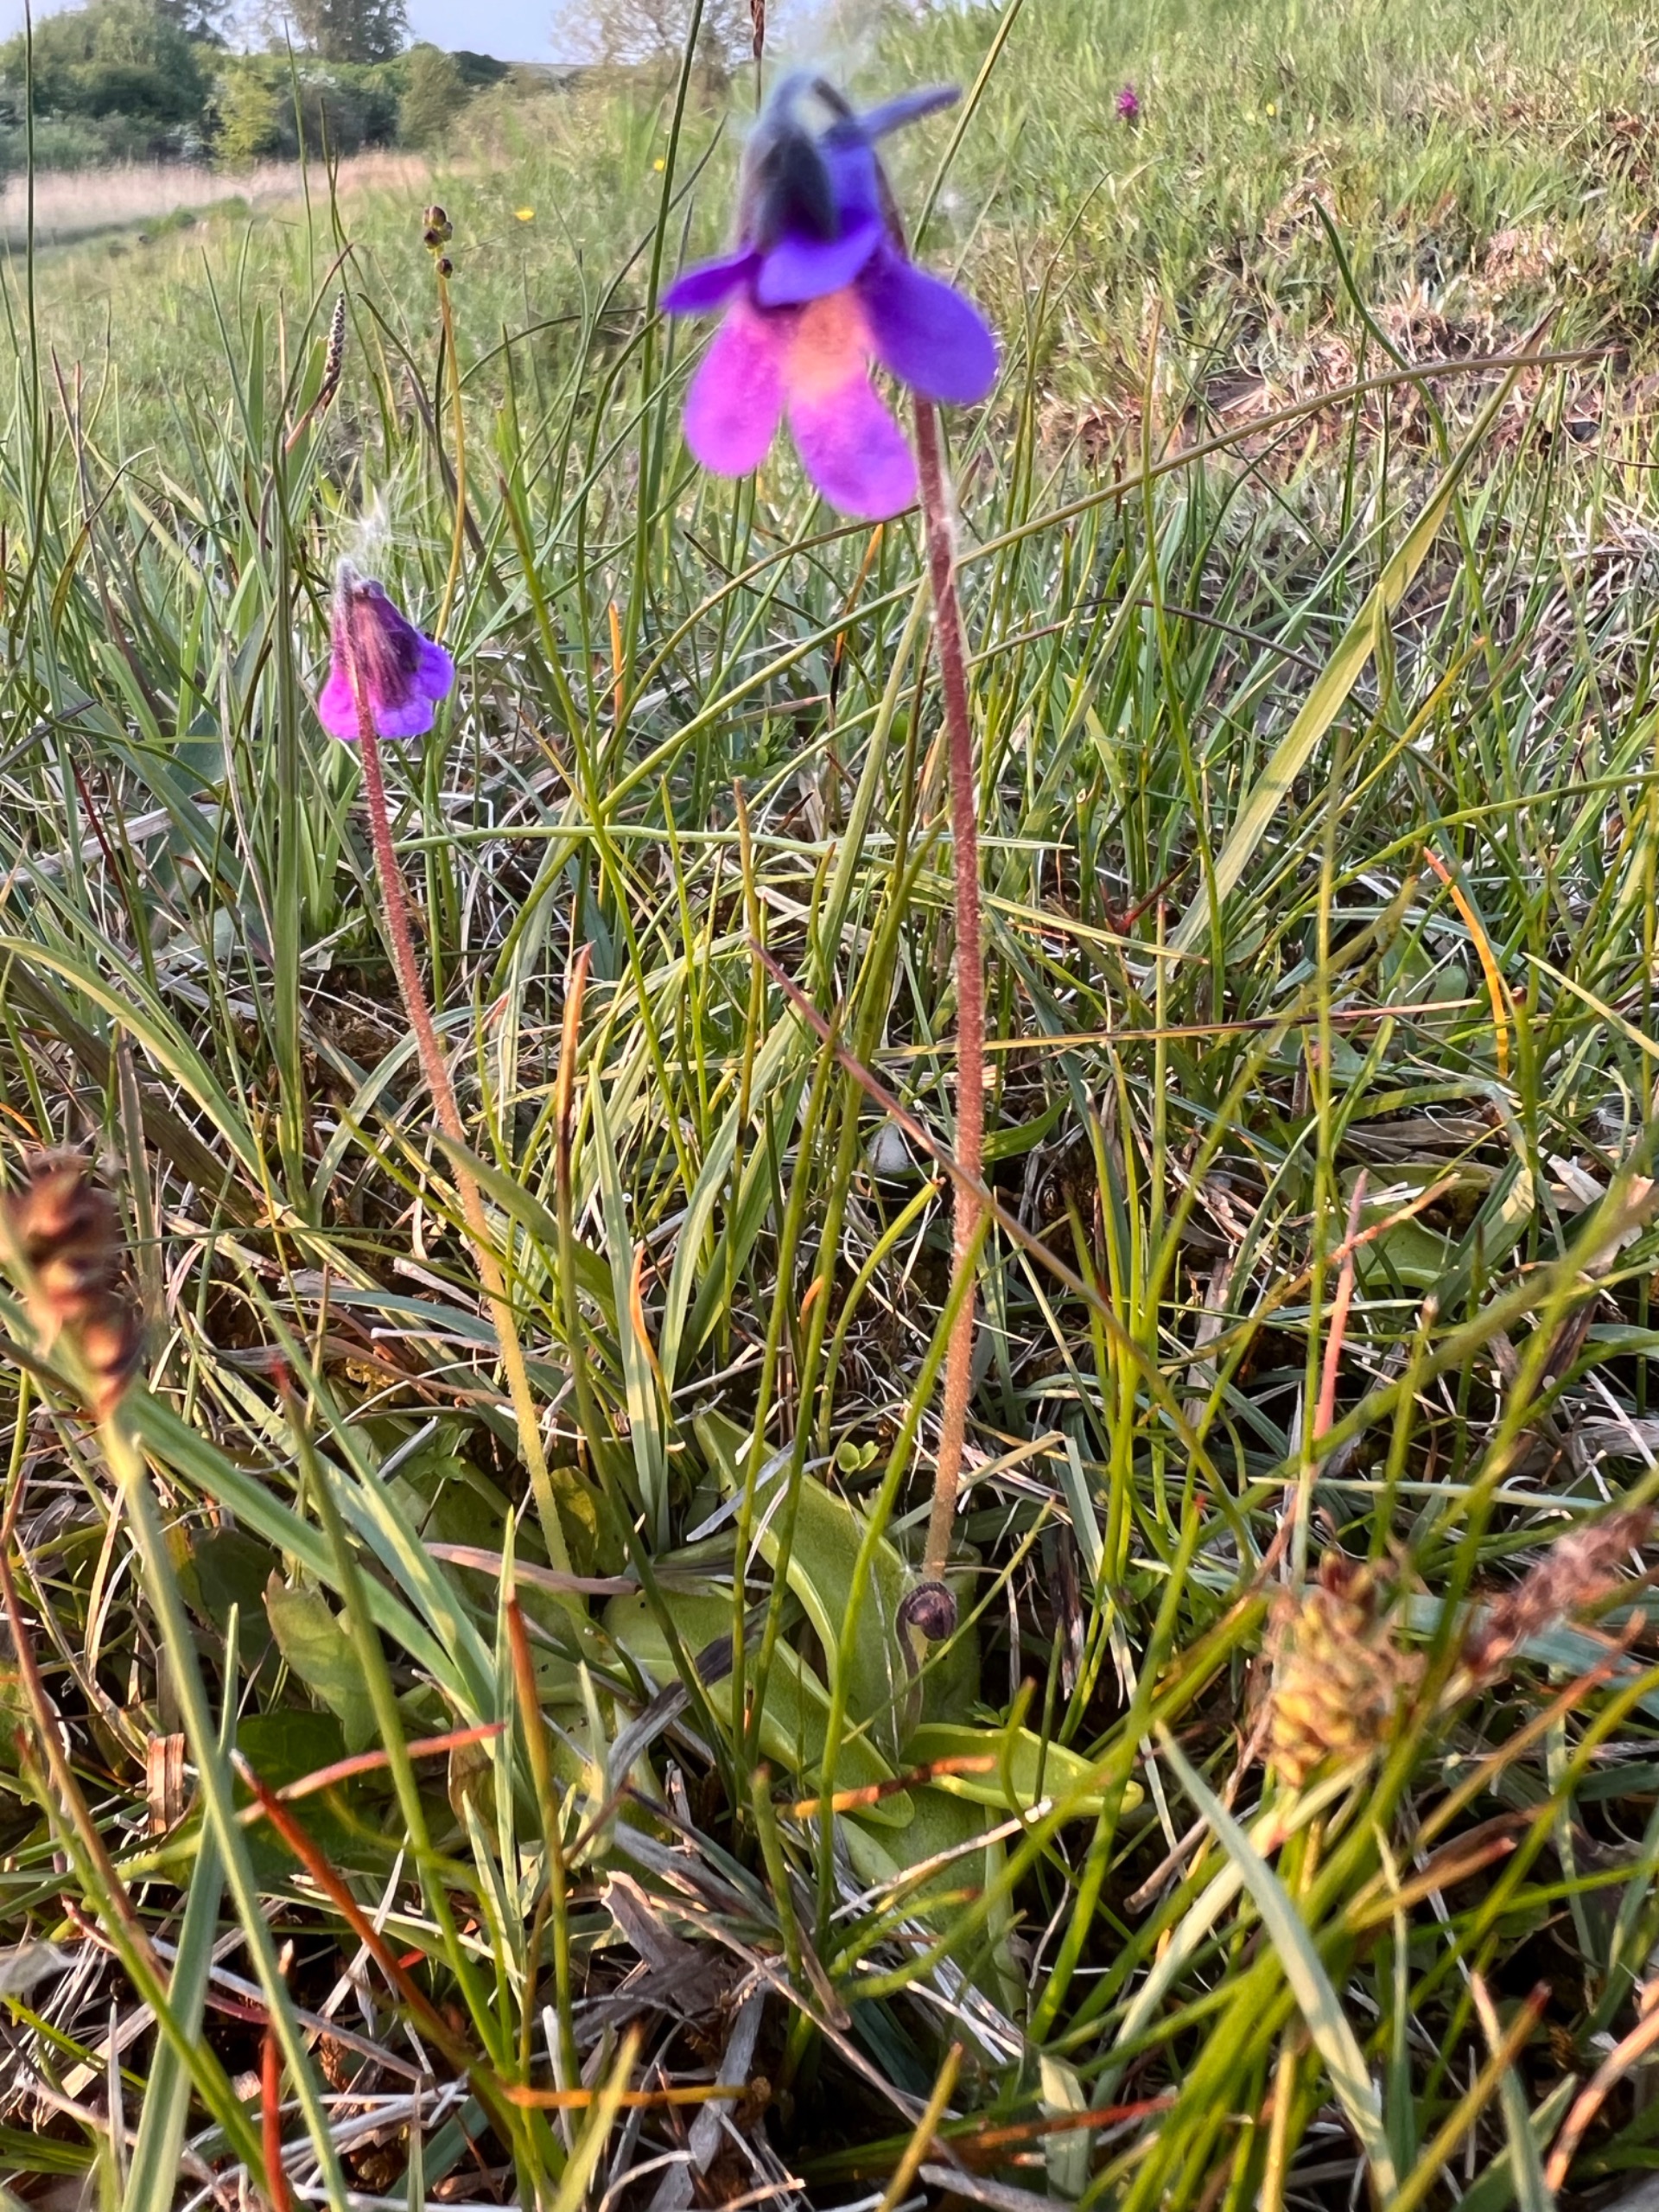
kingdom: Plantae
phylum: Tracheophyta
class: Magnoliopsida
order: Lamiales
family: Lentibulariaceae
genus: Pinguicula
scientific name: Pinguicula vulgaris
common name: Vibefedt
